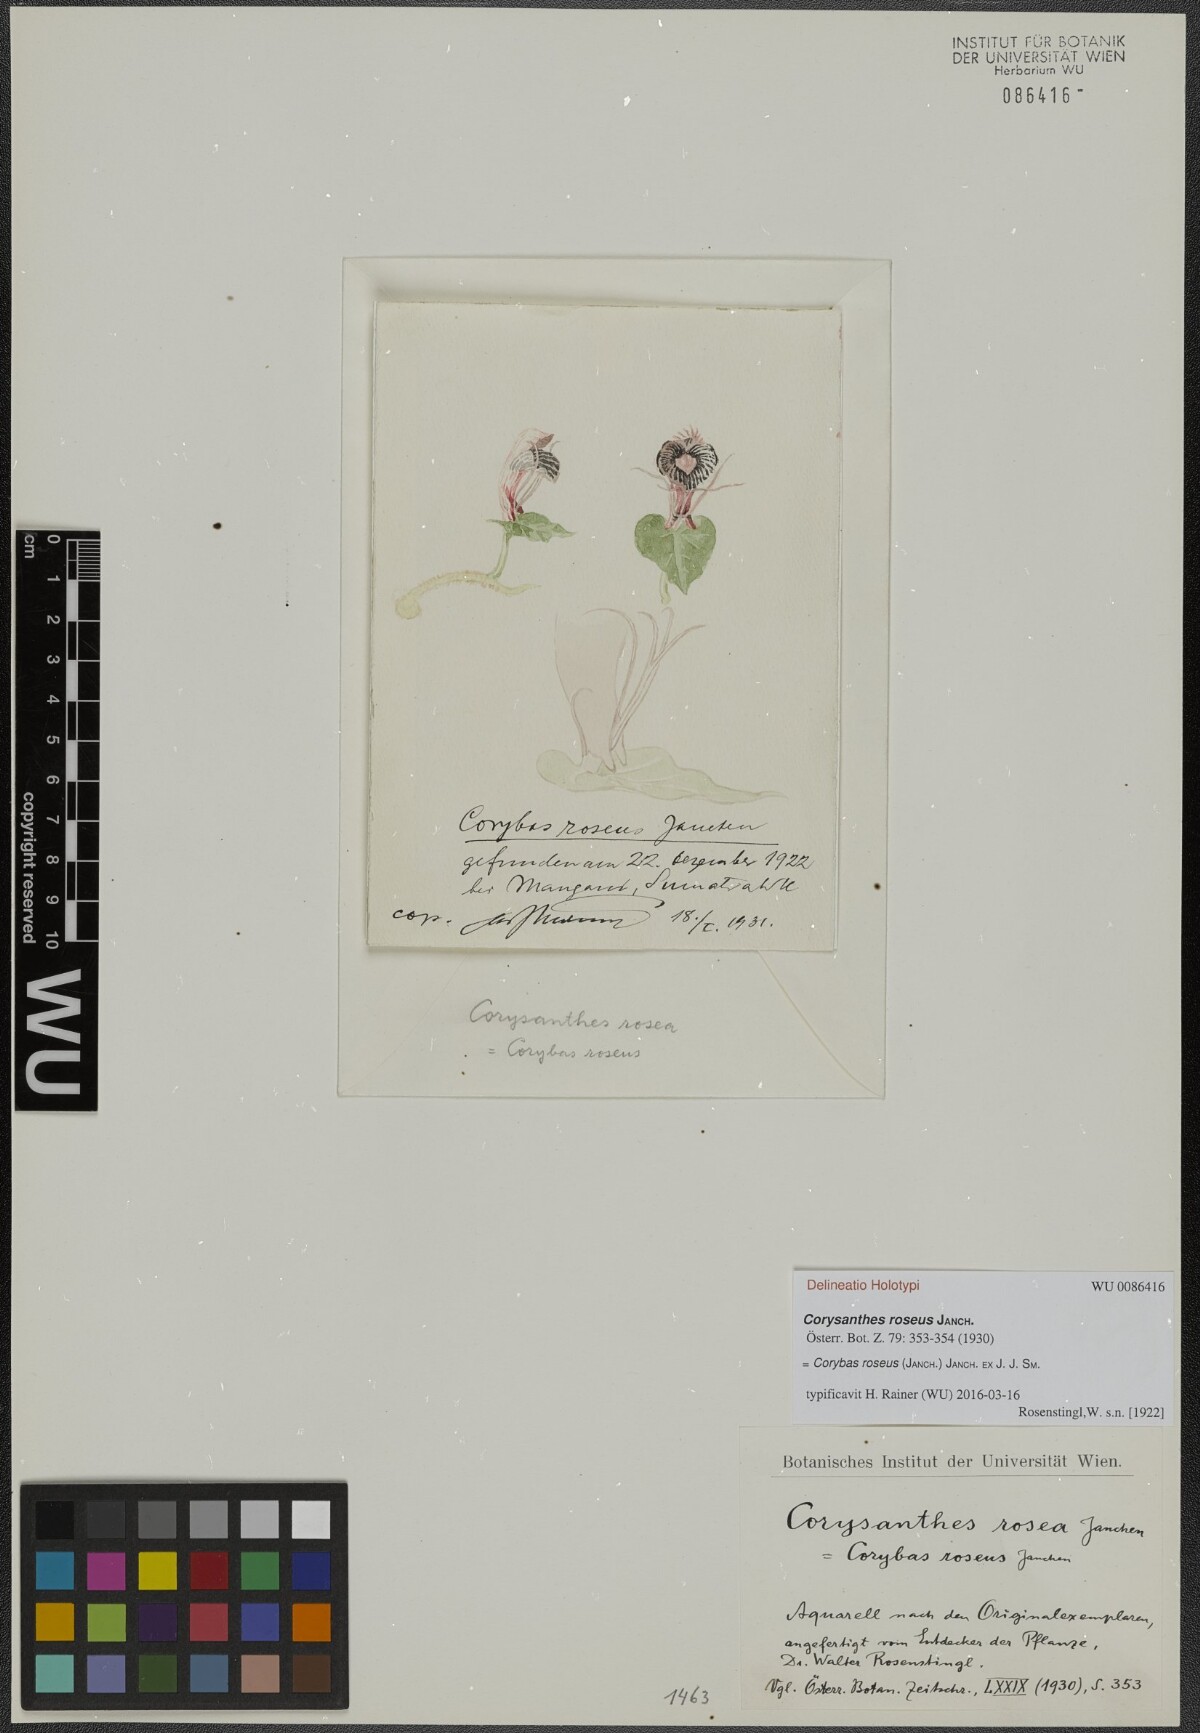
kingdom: Plantae
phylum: Tracheophyta
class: Liliopsida
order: Asparagales
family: Orchidaceae
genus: Corybas
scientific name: Corybas roseus
